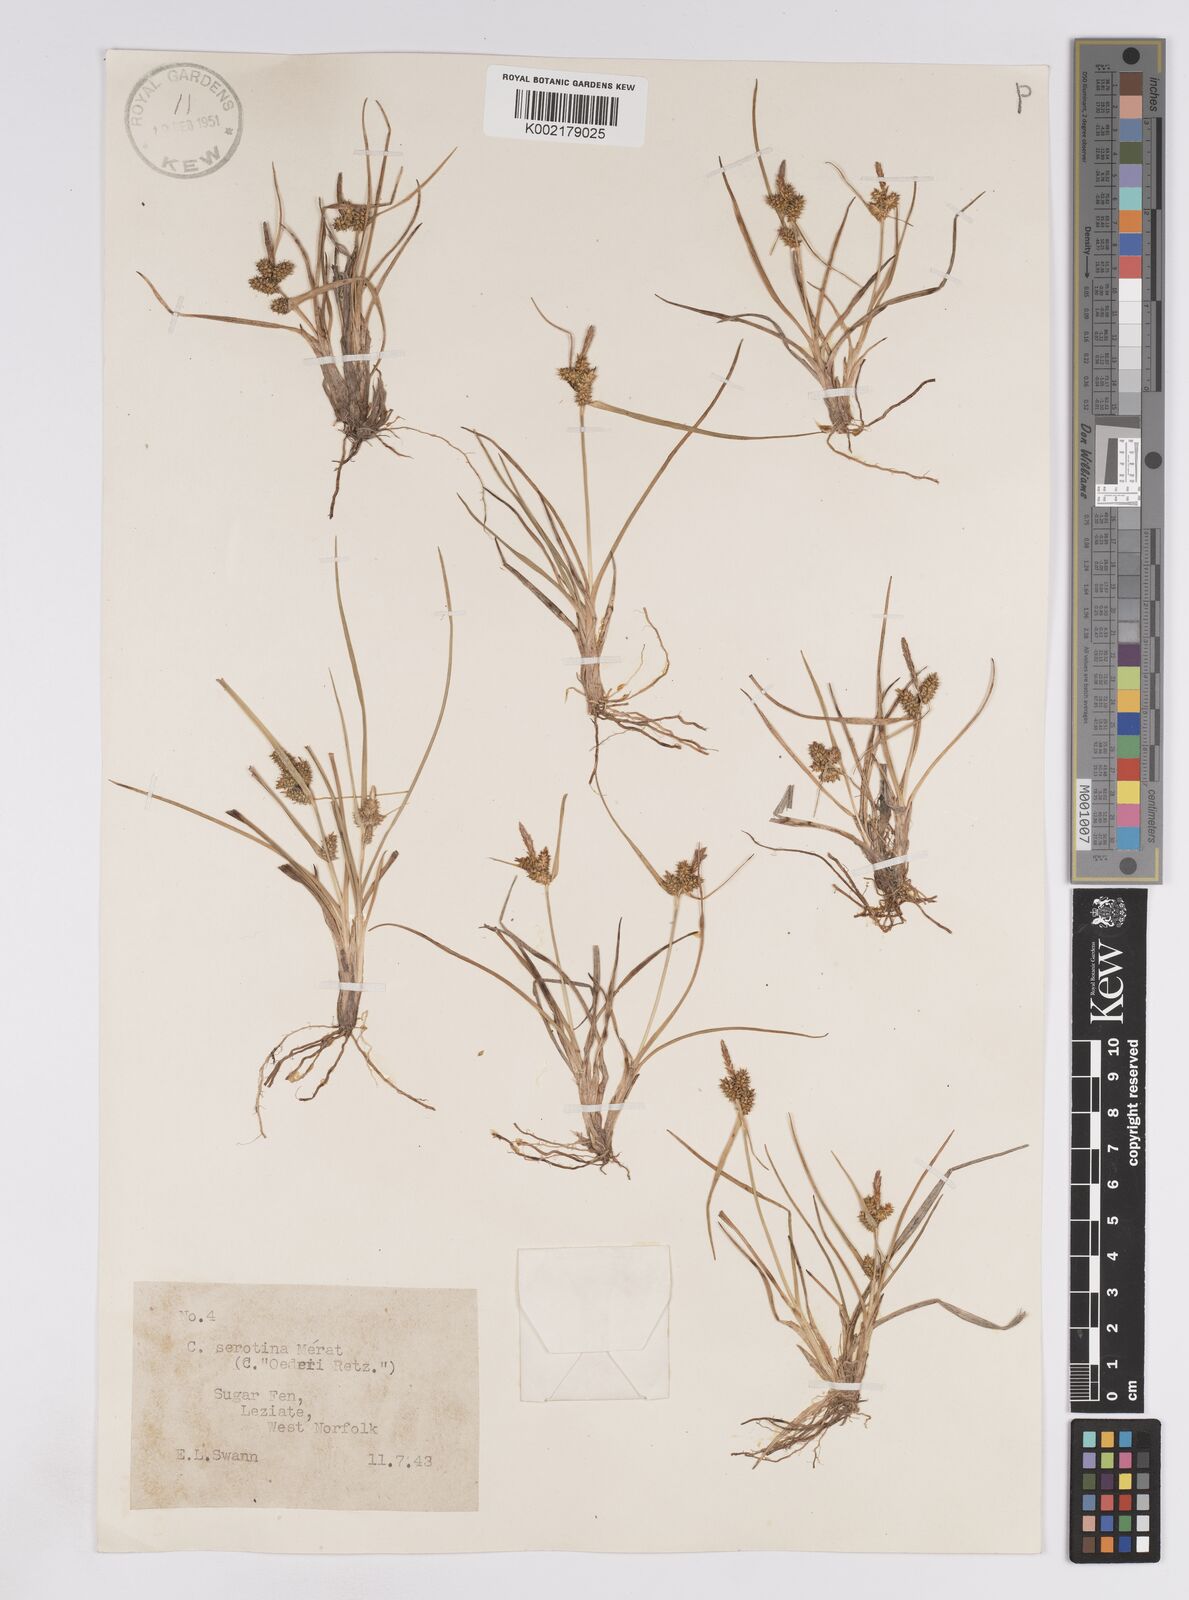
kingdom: Plantae
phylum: Tracheophyta
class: Liliopsida
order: Poales
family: Cyperaceae
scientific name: Cyperaceae
